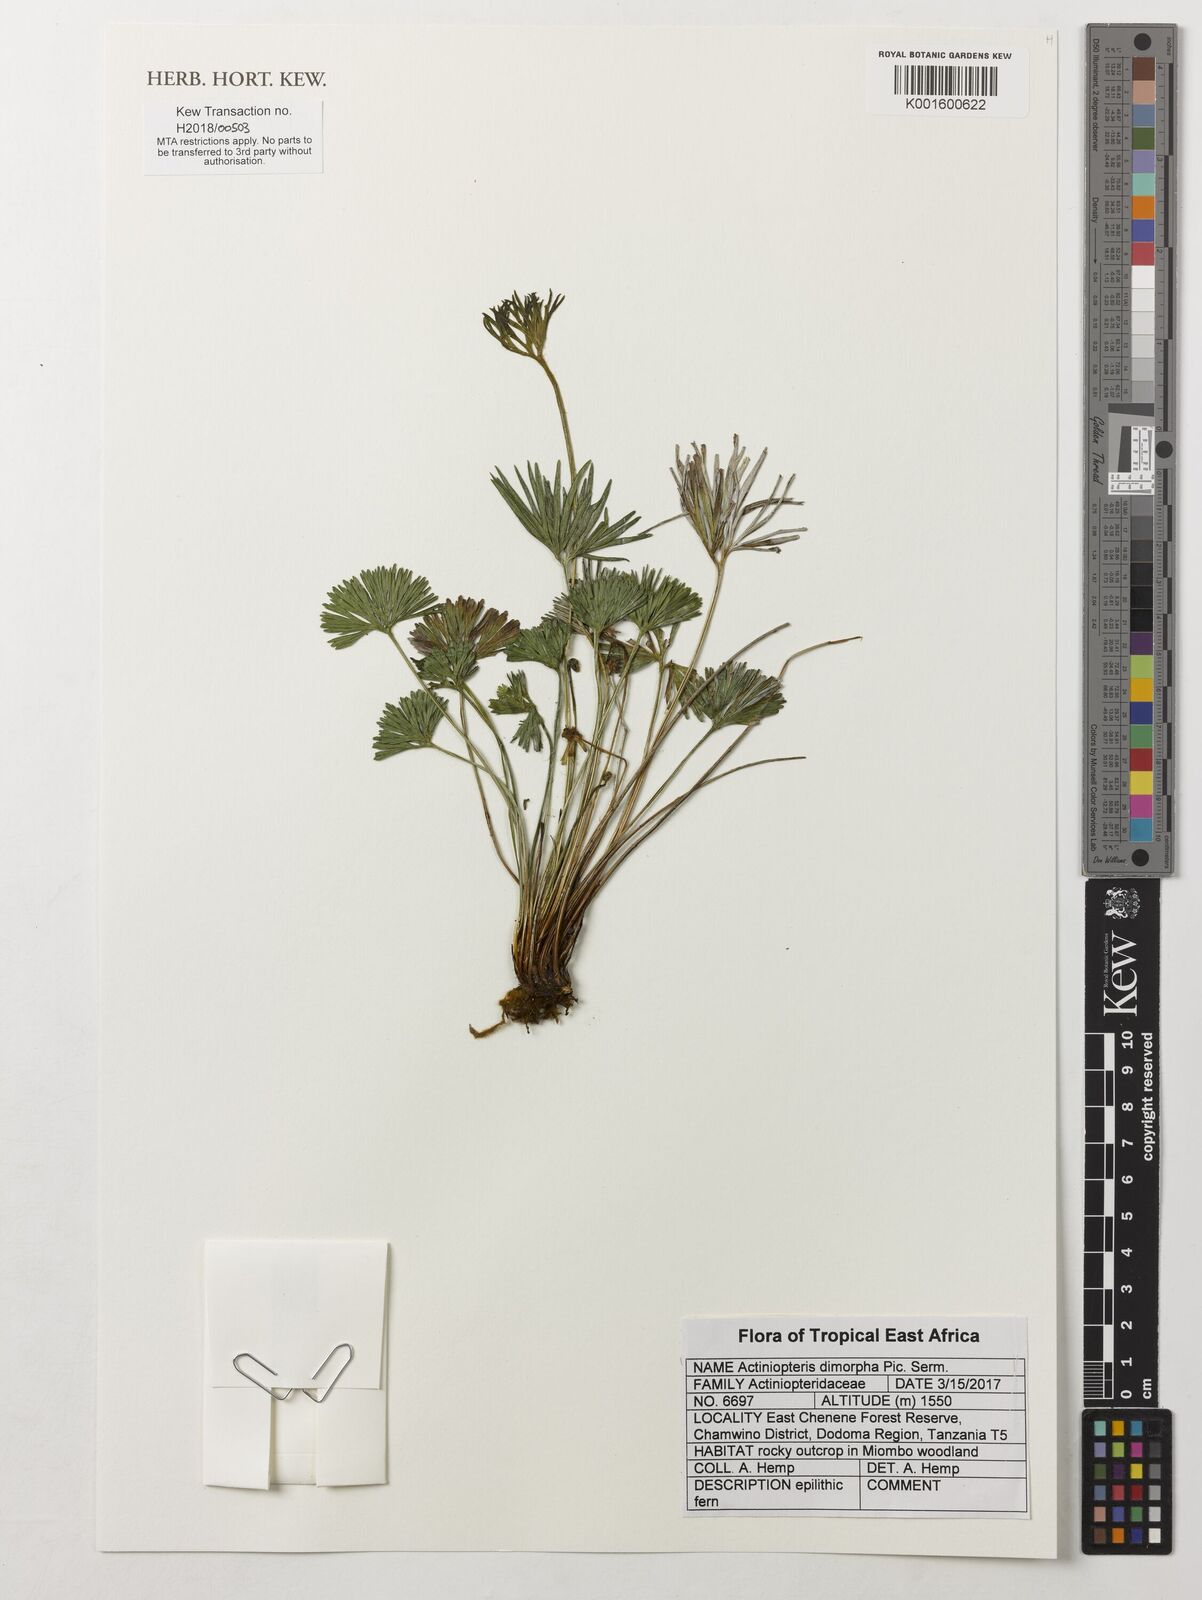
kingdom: Plantae
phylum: Tracheophyta
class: Polypodiopsida
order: Polypodiales
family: Pteridaceae
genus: Actiniopteris
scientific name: Actiniopteris dimorpha
